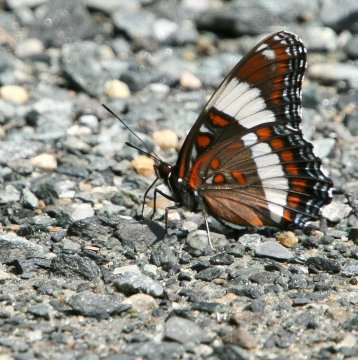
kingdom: Animalia
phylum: Arthropoda
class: Insecta
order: Lepidoptera
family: Nymphalidae
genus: Limenitis
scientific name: Limenitis arthemis
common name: Red-spotted Admiral
